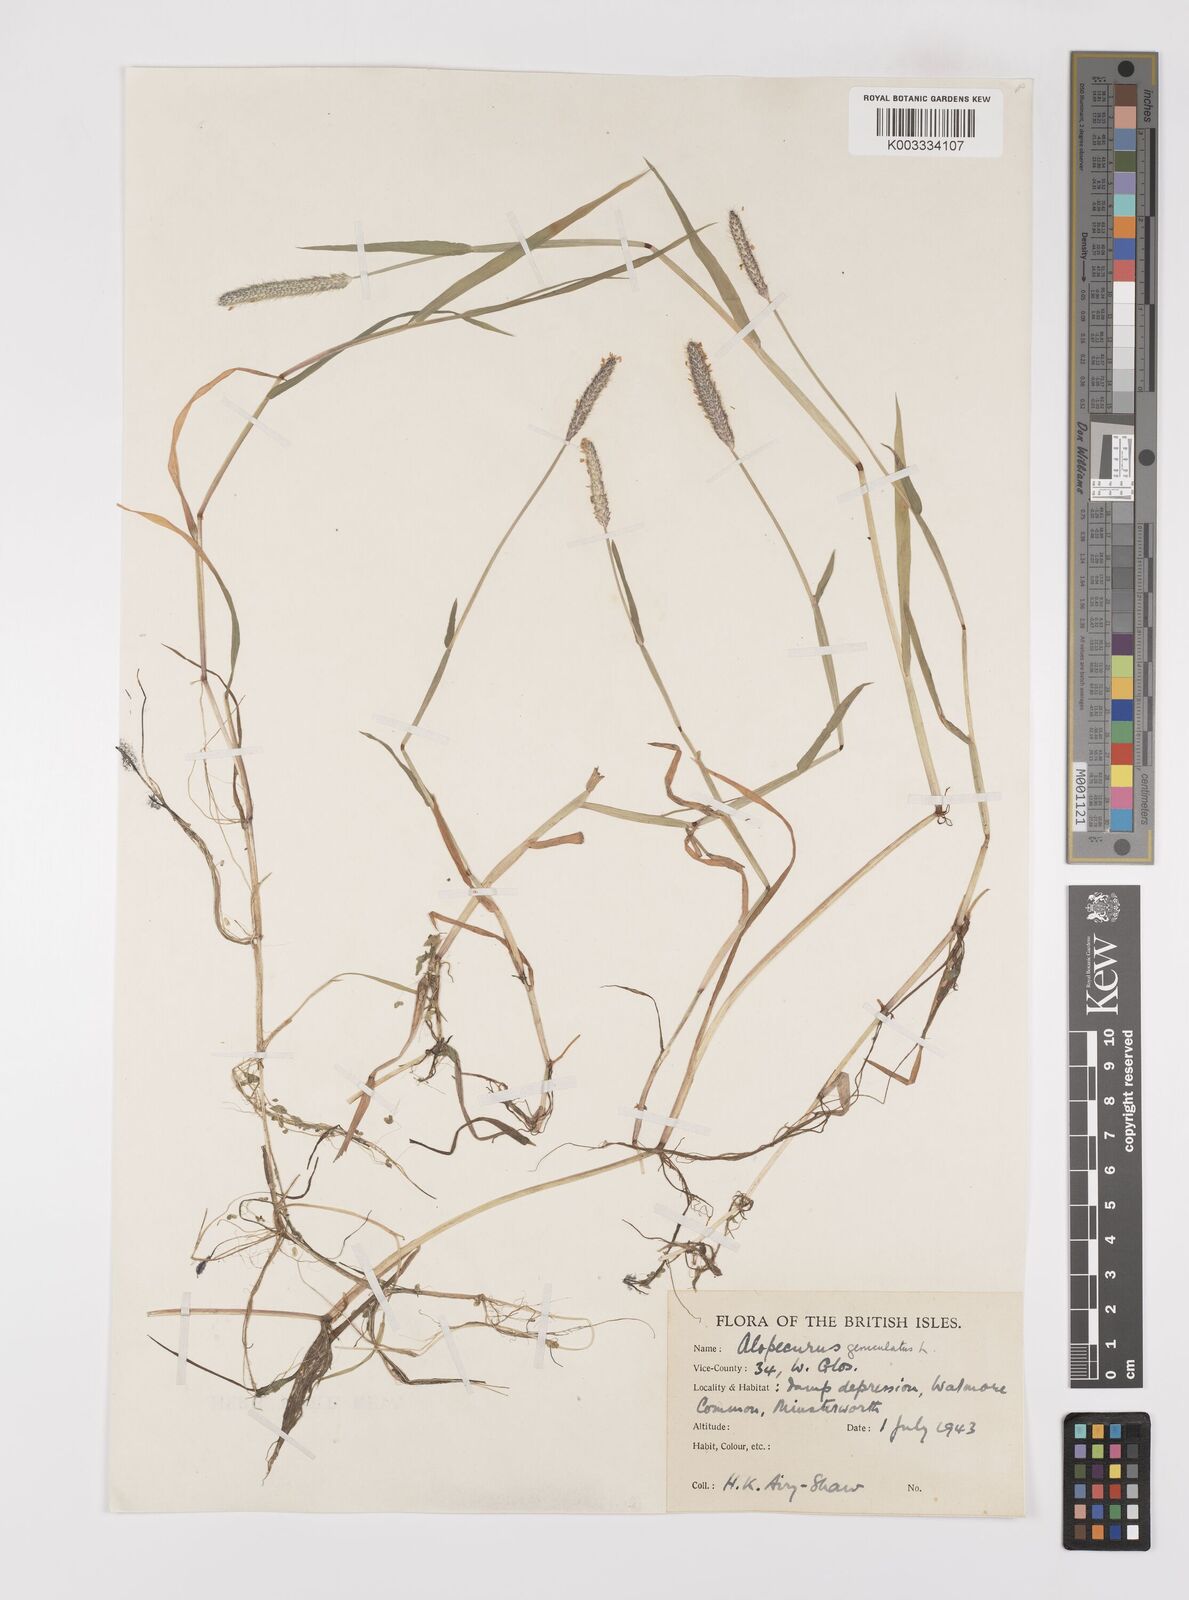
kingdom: Plantae
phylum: Tracheophyta
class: Liliopsida
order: Poales
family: Poaceae
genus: Alopecurus
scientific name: Alopecurus geniculatus
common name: Water foxtail
